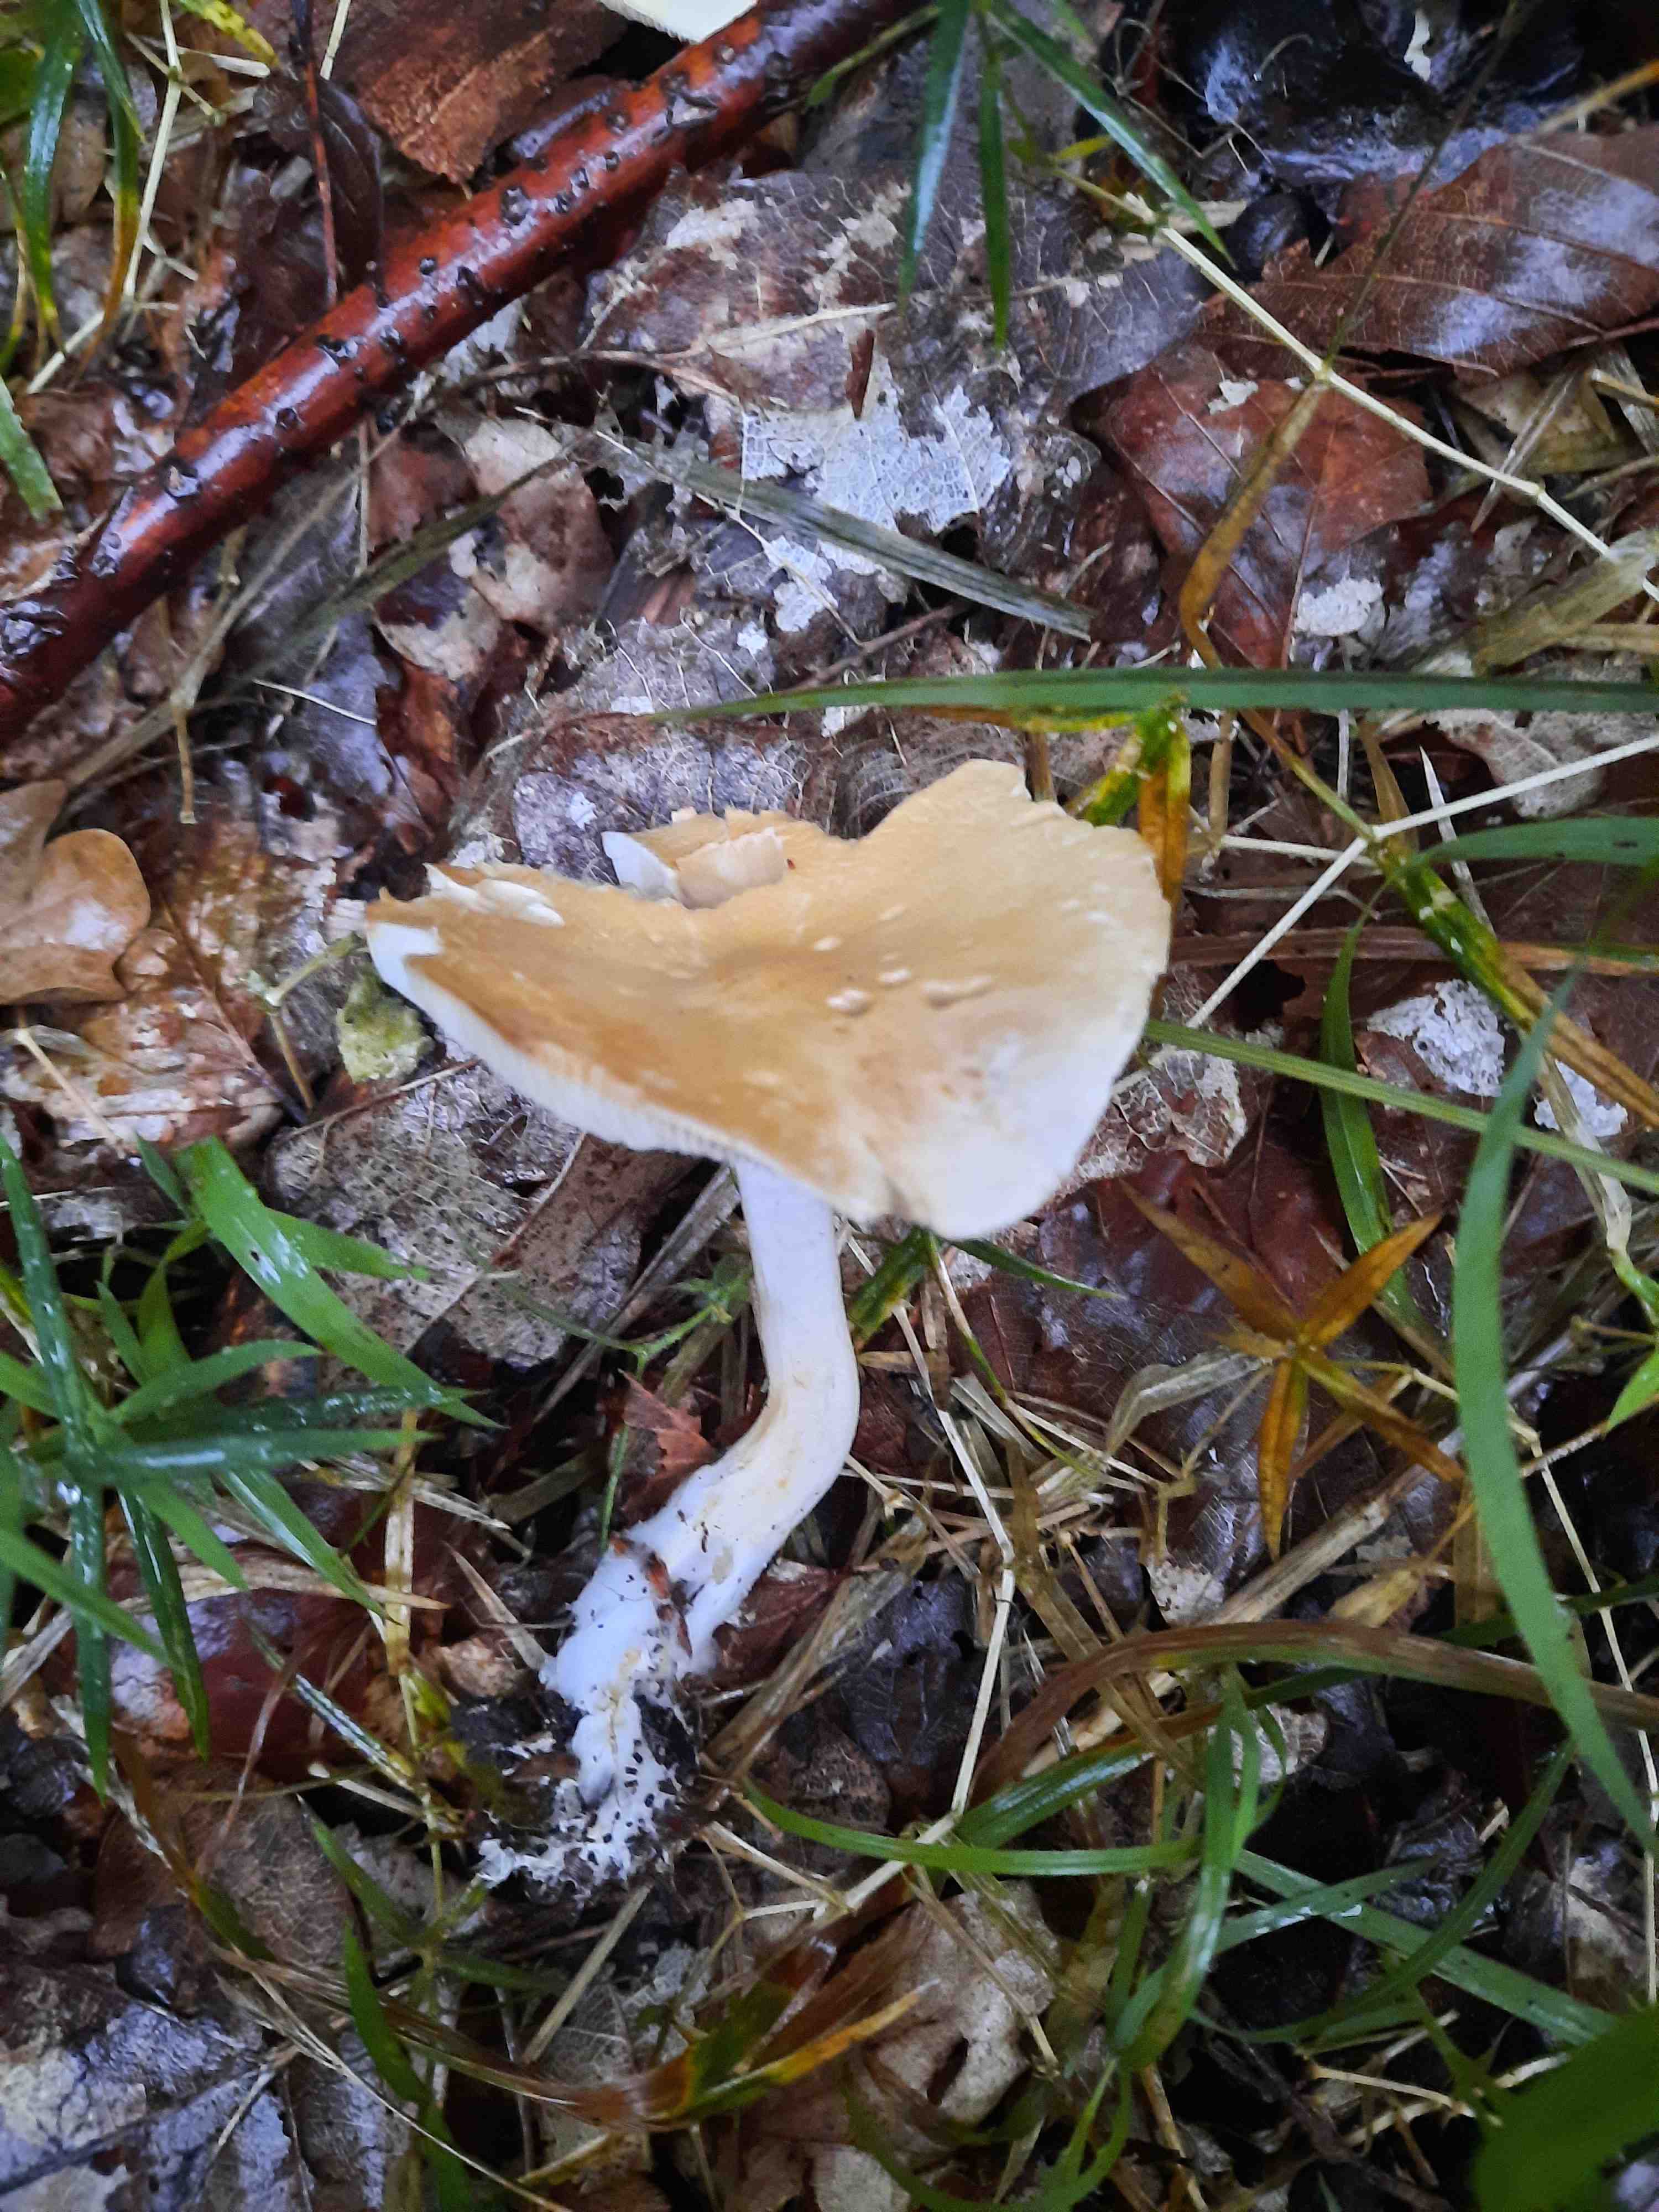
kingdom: Fungi
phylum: Basidiomycota
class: Agaricomycetes
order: Agaricales
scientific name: Agaricales
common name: champignonordenen
